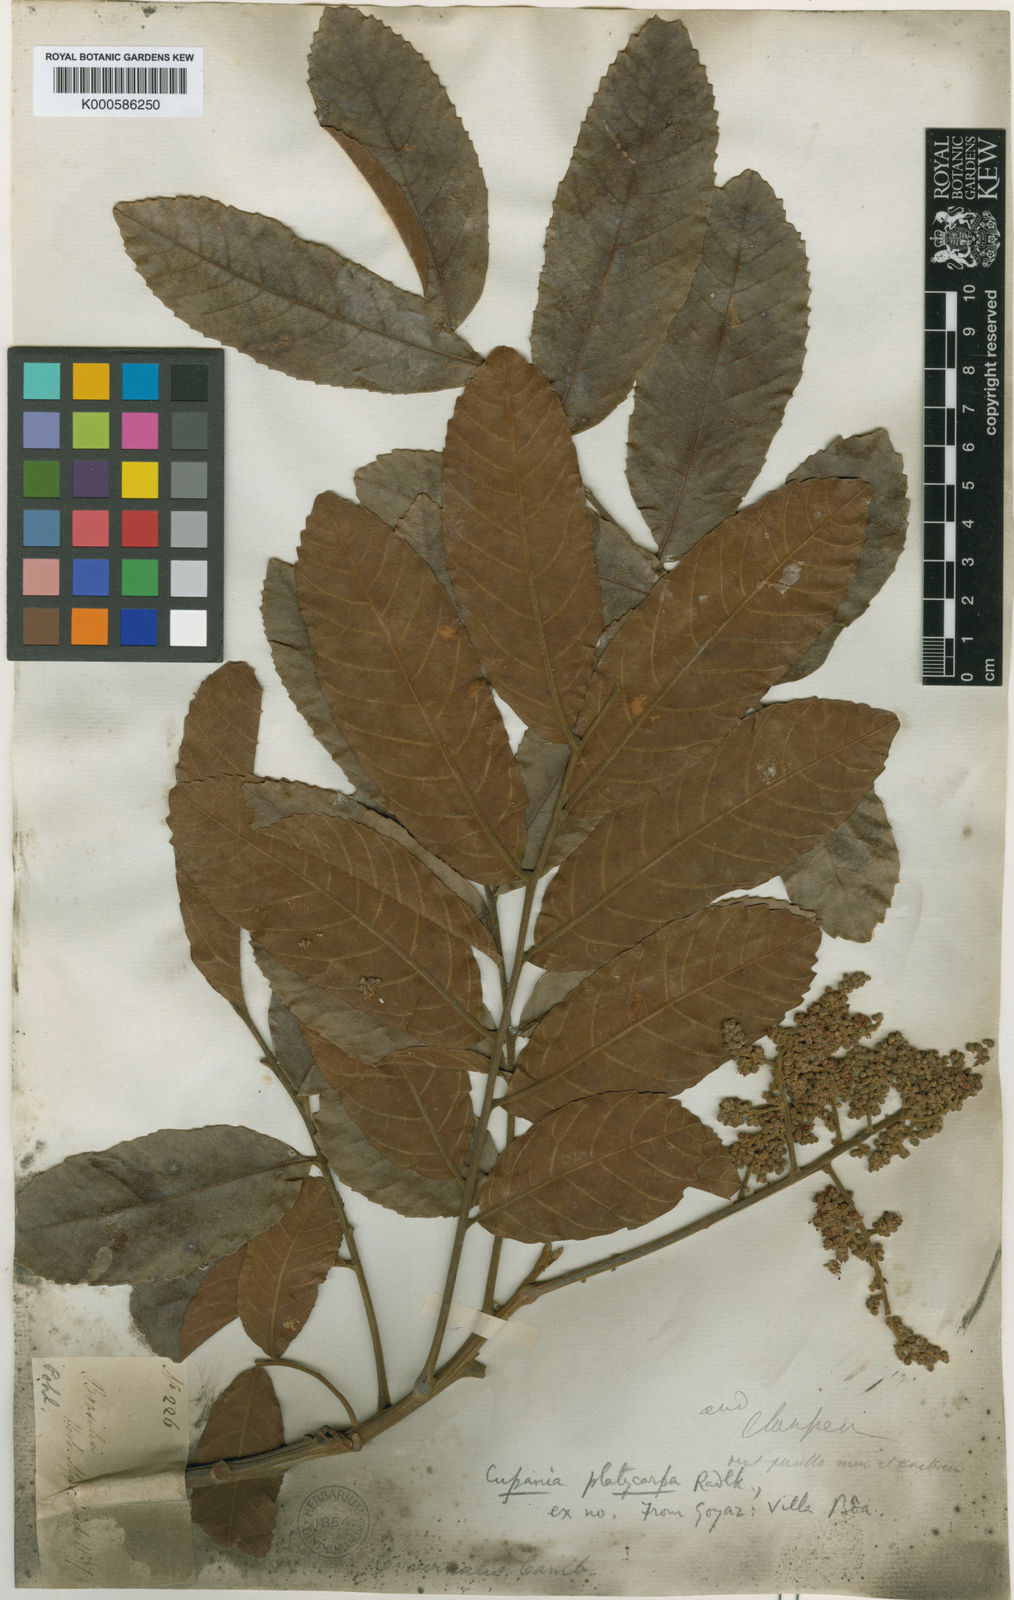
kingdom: Plantae
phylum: Tracheophyta
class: Magnoliopsida
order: Sapindales
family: Sapindaceae
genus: Cupania
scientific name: Cupania platycarpa
